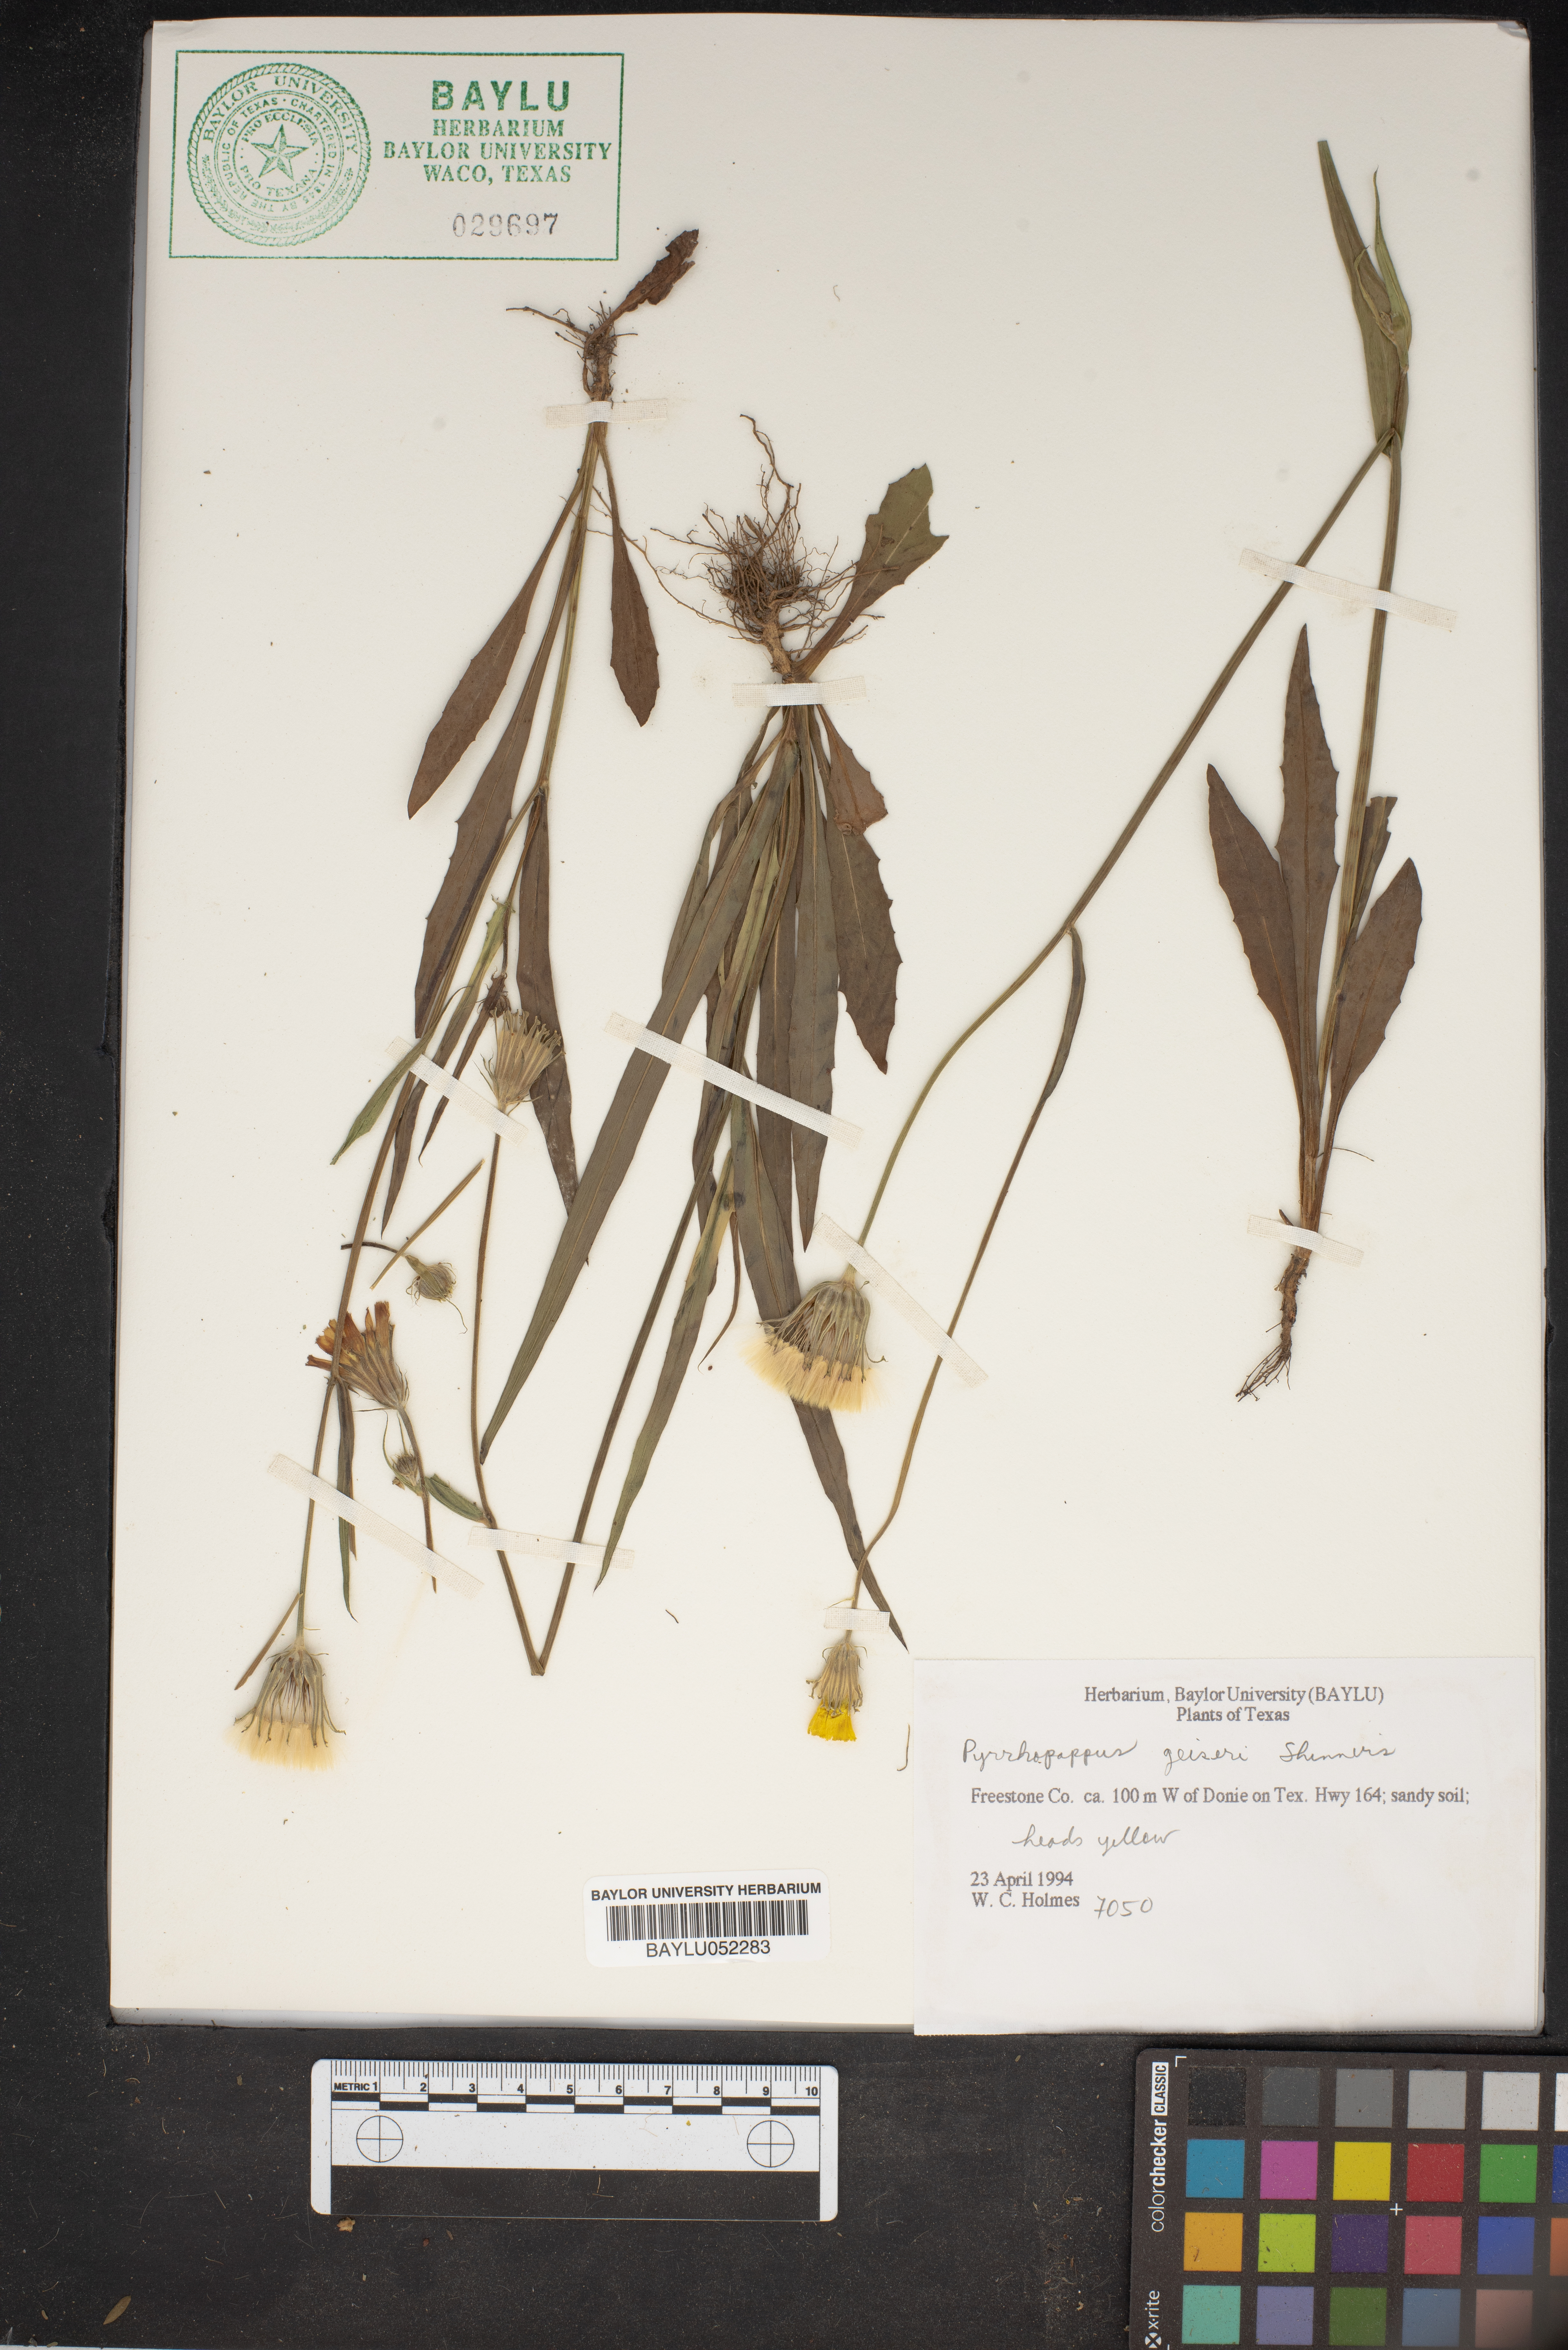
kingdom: Plantae
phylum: Tracheophyta
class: Magnoliopsida
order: Asterales
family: Asteraceae
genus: Pyrrhopappus
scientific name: Pyrrhopappus pauciflorus
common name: Texas false dandelion
